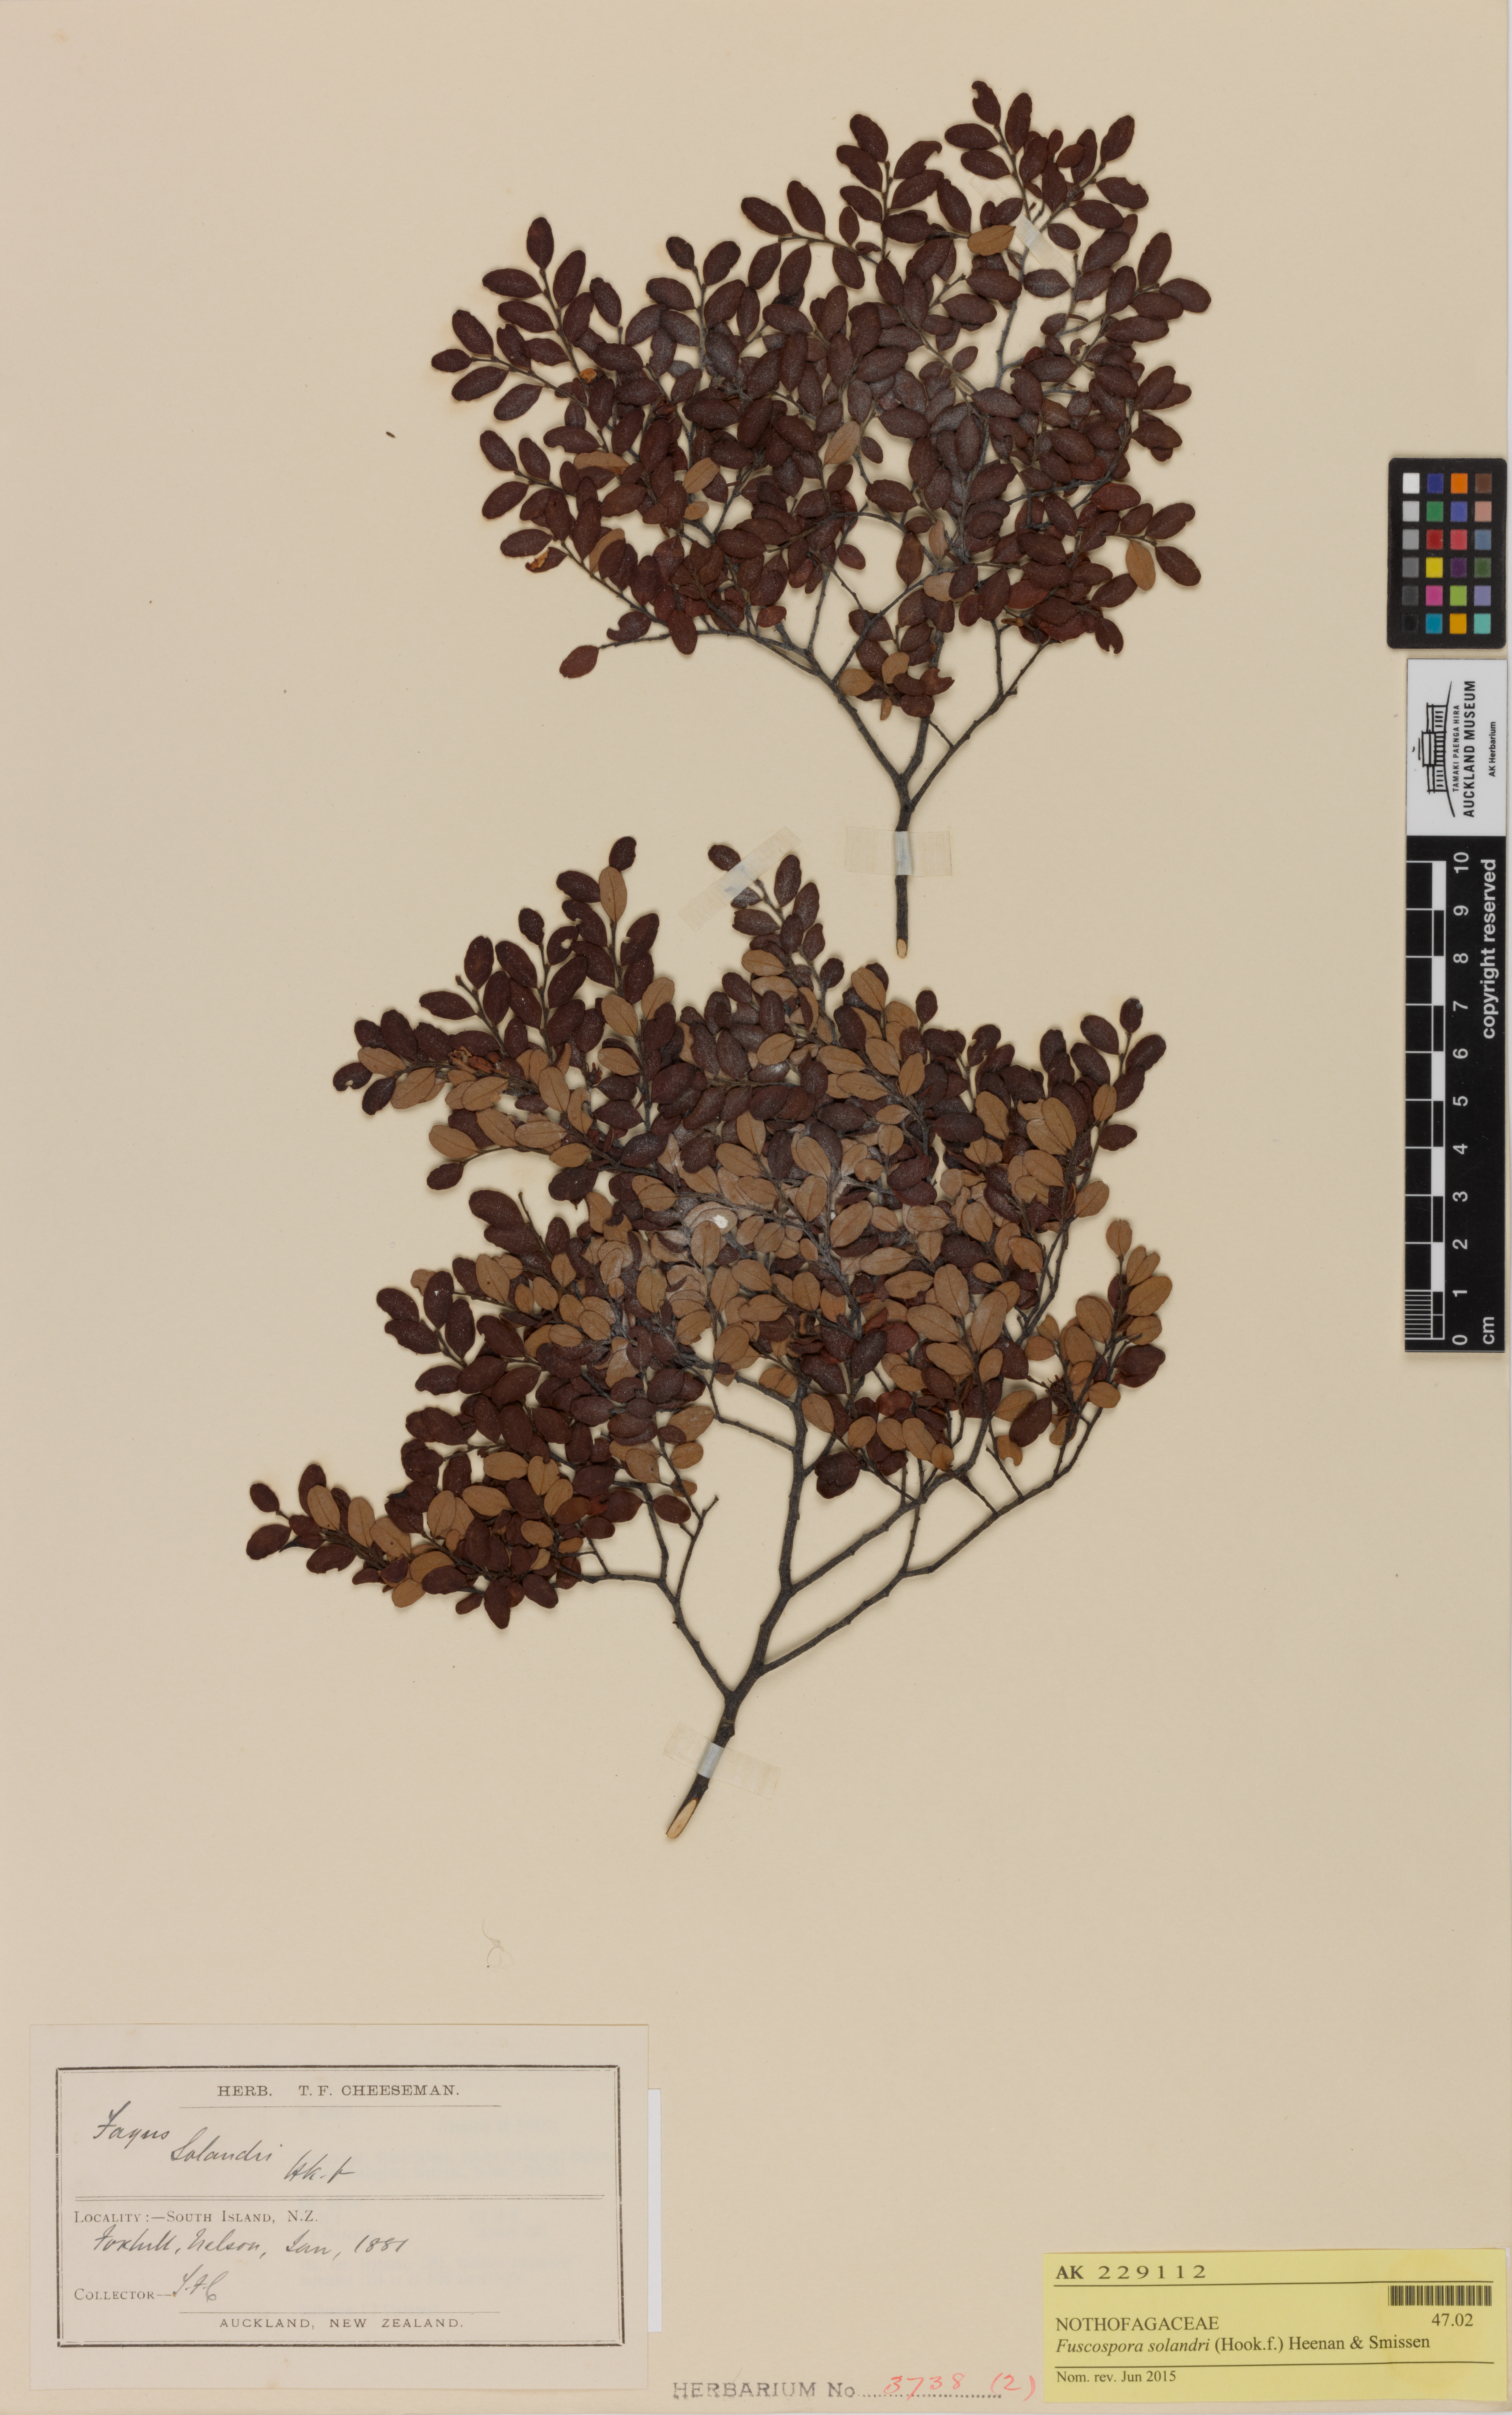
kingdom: Plantae
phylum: Tracheophyta
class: Magnoliopsida
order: Fagales
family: Nothofagaceae
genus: Nothofagus
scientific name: Nothofagus solandri
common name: Black beech
